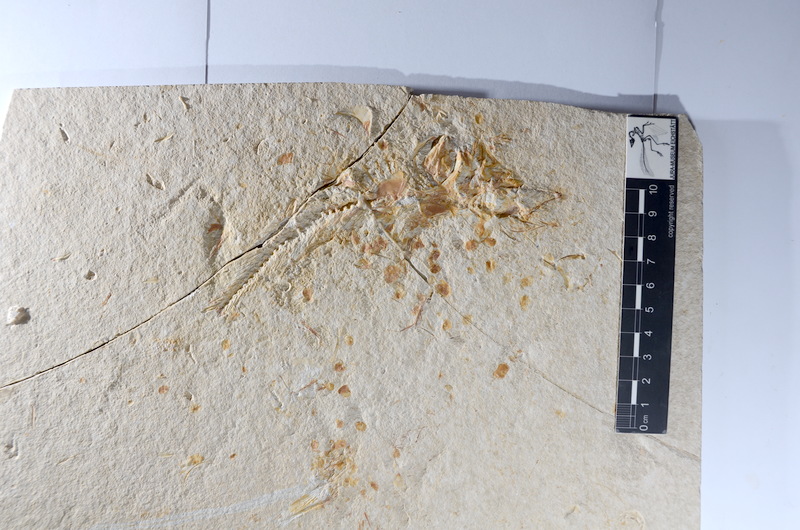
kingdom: Animalia
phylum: Chordata
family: Ascalaboidae
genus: Tharsis
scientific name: Tharsis dubius
